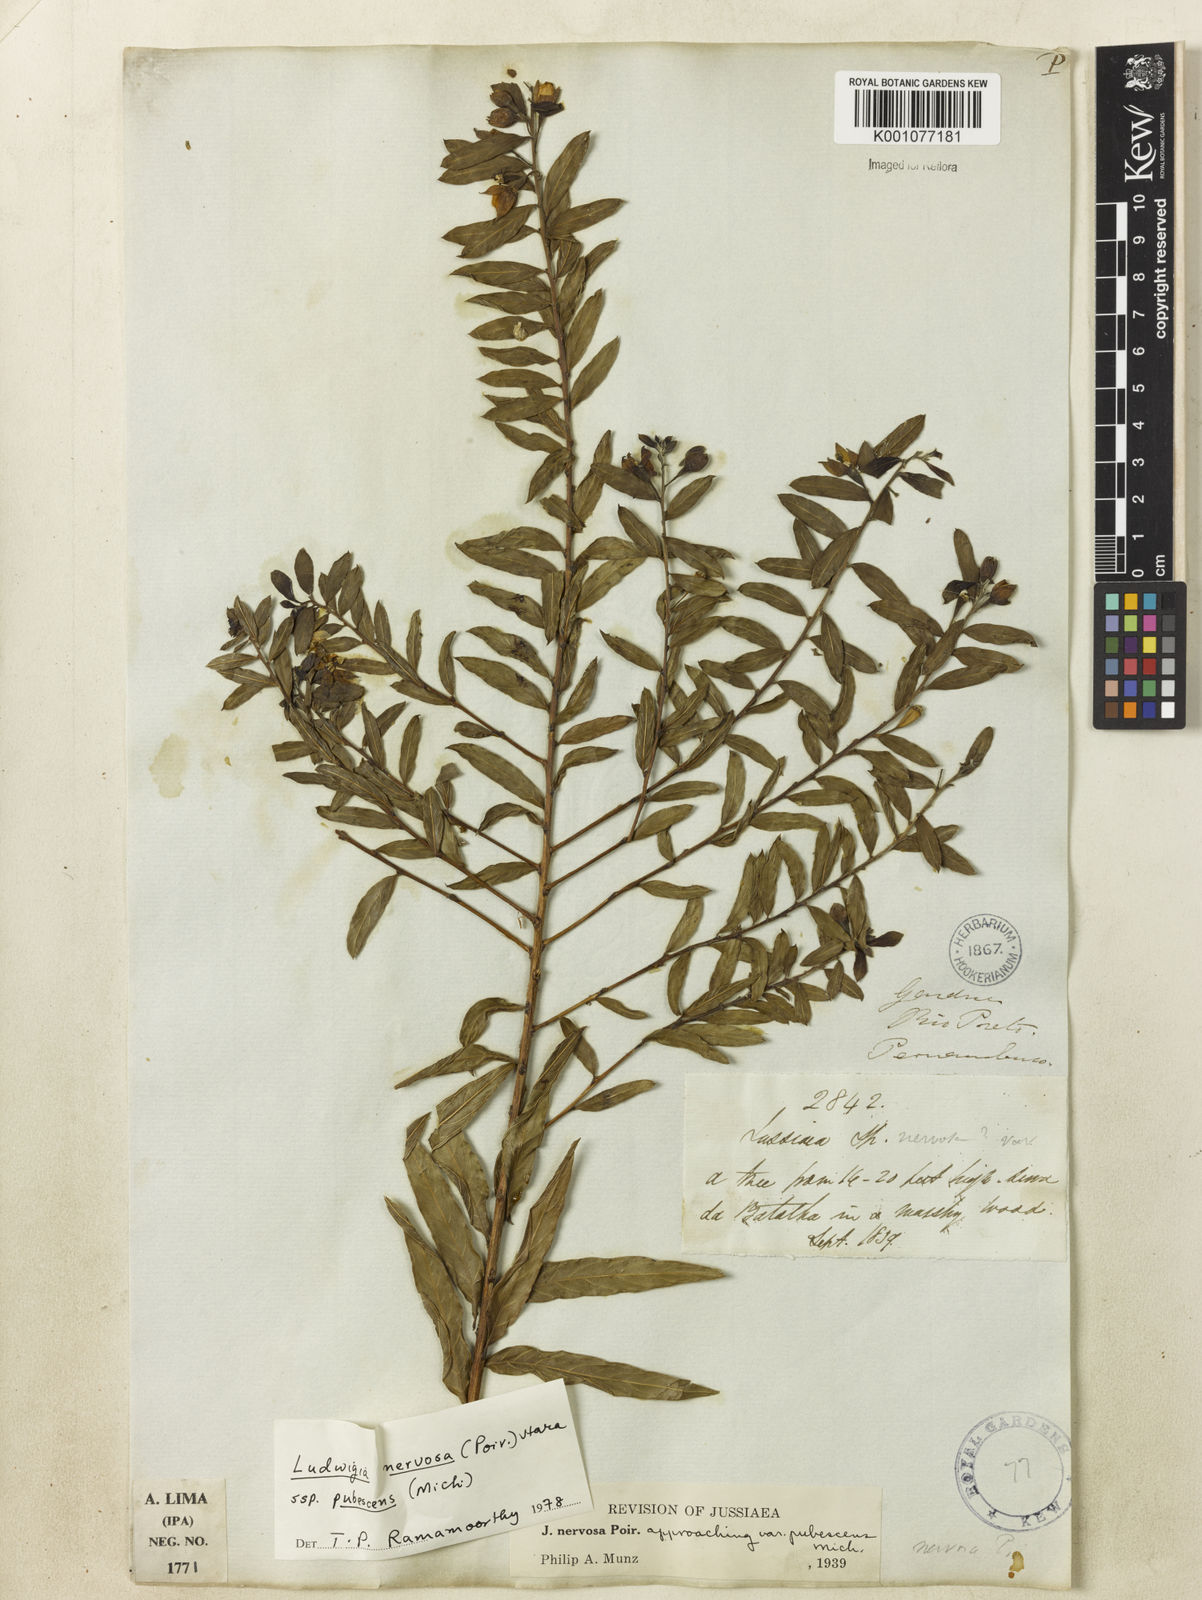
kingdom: Plantae
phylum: Tracheophyta
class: Magnoliopsida
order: Myrtales
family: Onagraceae
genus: Ludwigia
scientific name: Ludwigia nervosa
